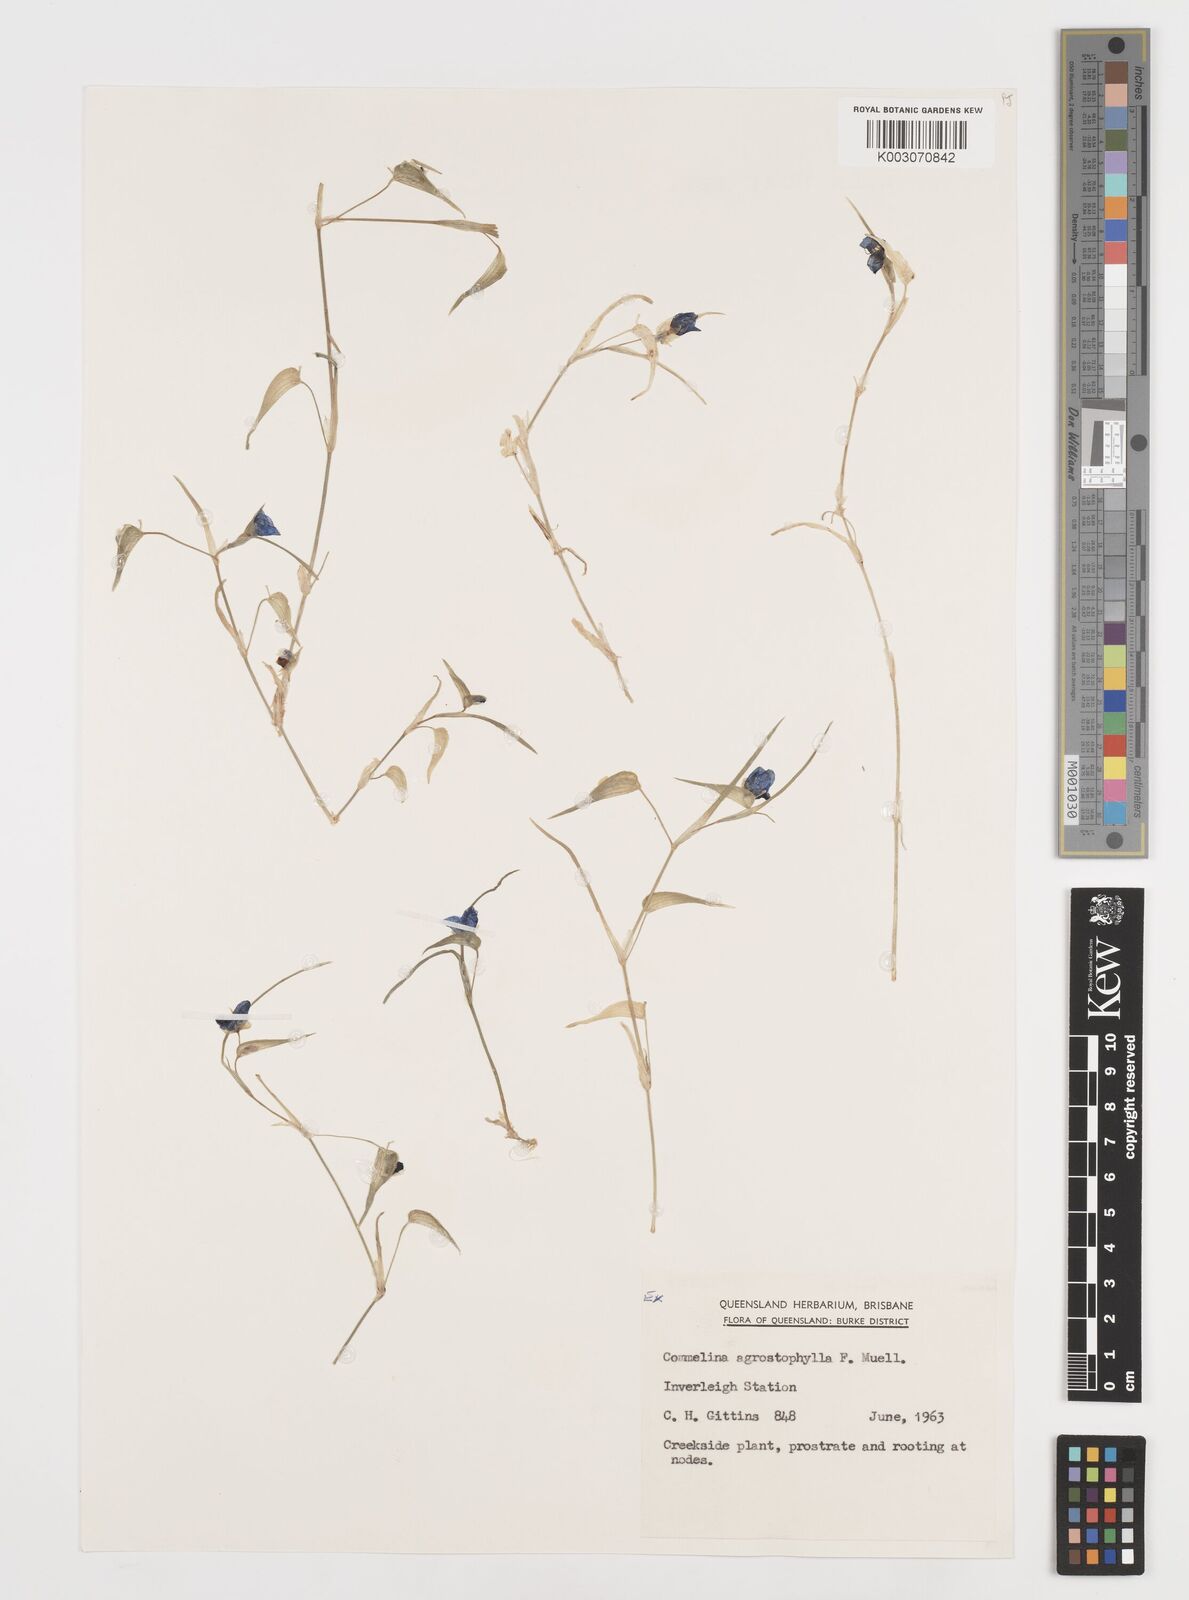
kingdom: Plantae
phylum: Tracheophyta
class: Liliopsida
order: Commelinales
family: Commelinaceae
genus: Commelina
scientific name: Commelina agrostophylla
